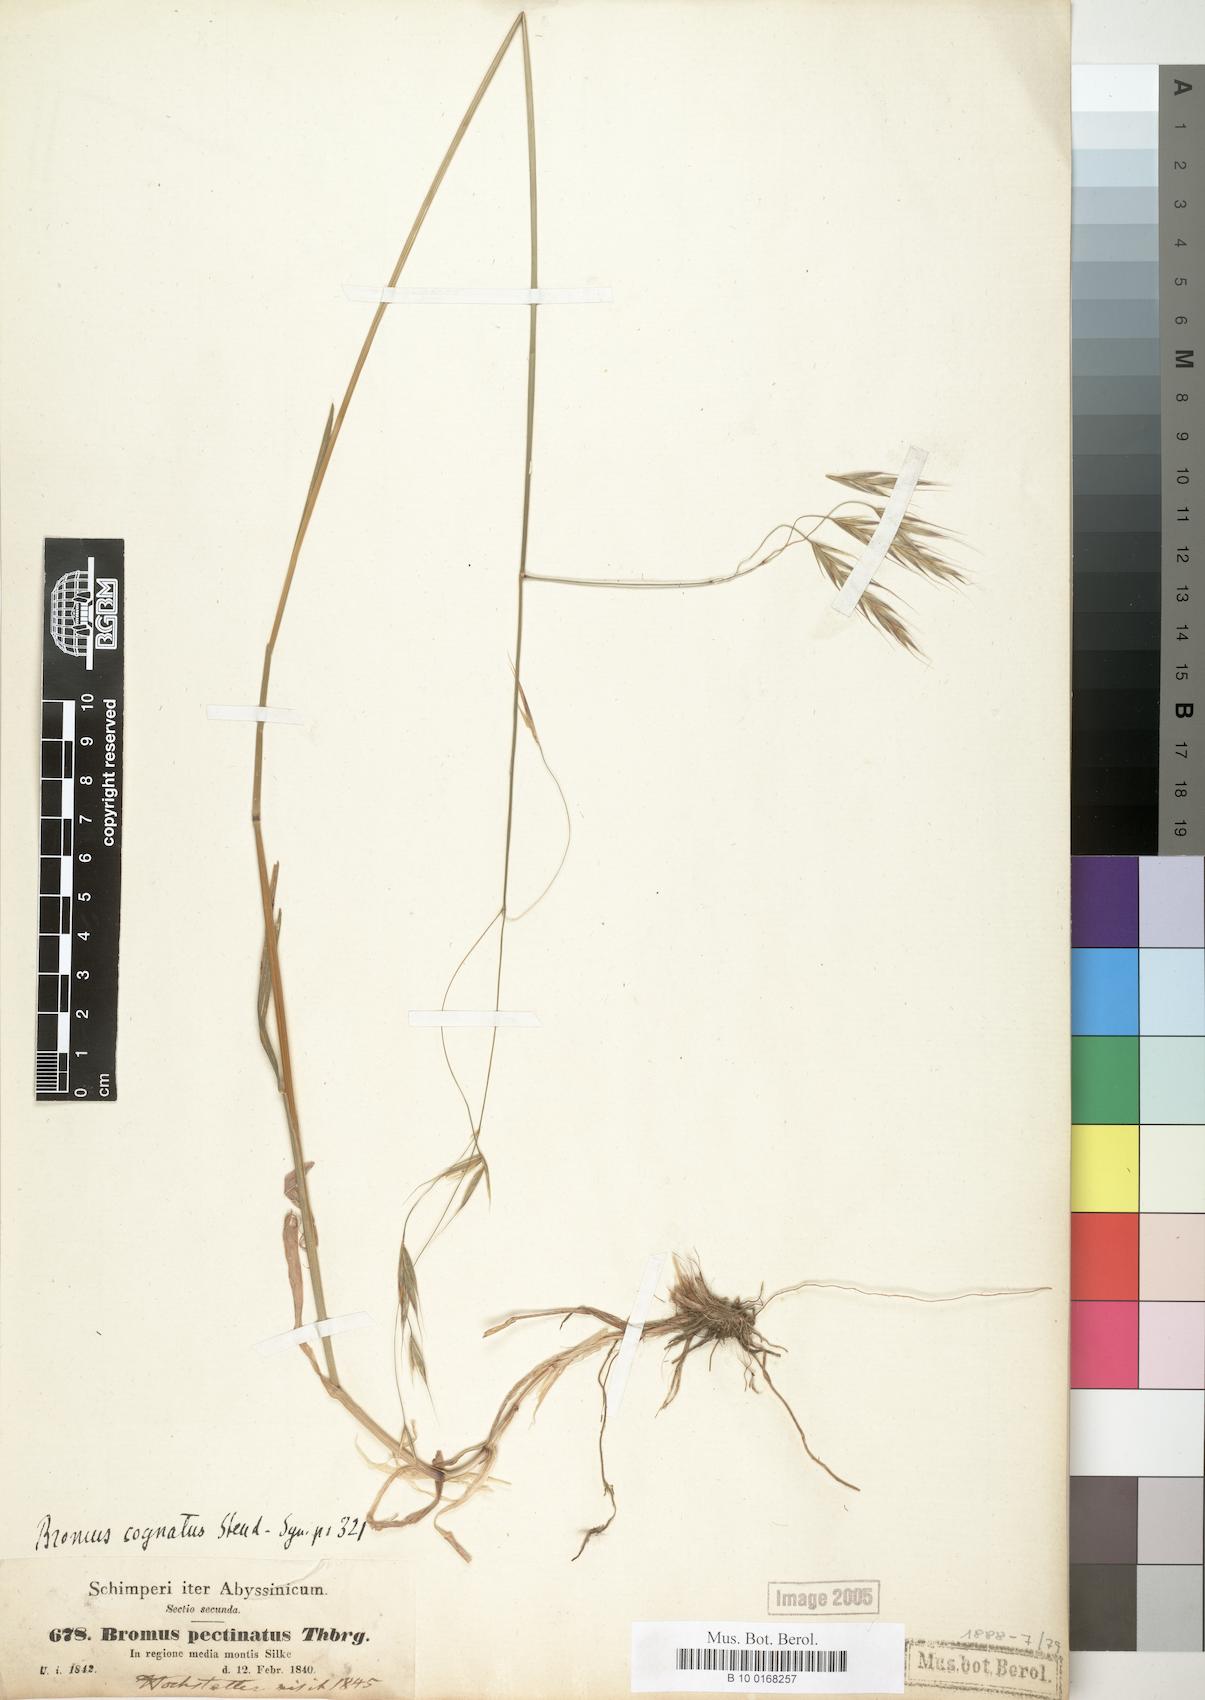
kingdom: Plantae
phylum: Tracheophyta
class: Liliopsida
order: Poales
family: Poaceae
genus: Bromus
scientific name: Bromus leptoclados
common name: Mountain bromegrass
